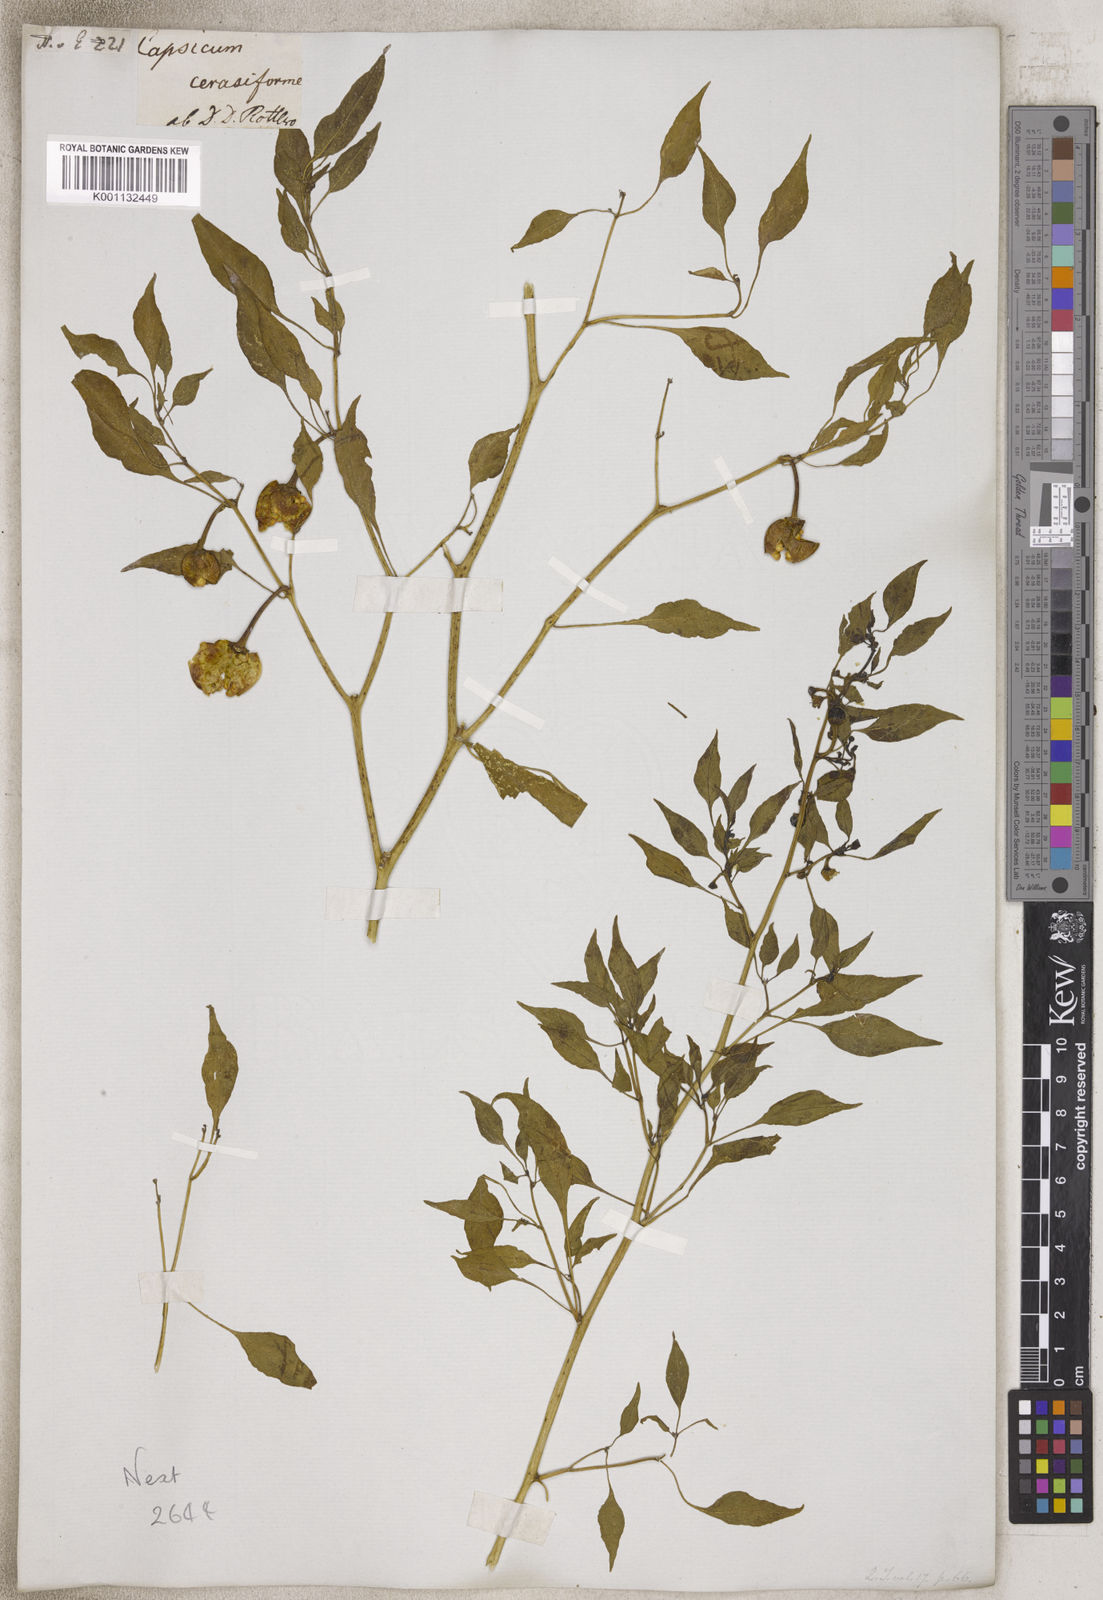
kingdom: Plantae
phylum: Tracheophyta
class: Magnoliopsida
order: Solanales
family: Solanaceae
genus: Capsicum
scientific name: Capsicum
